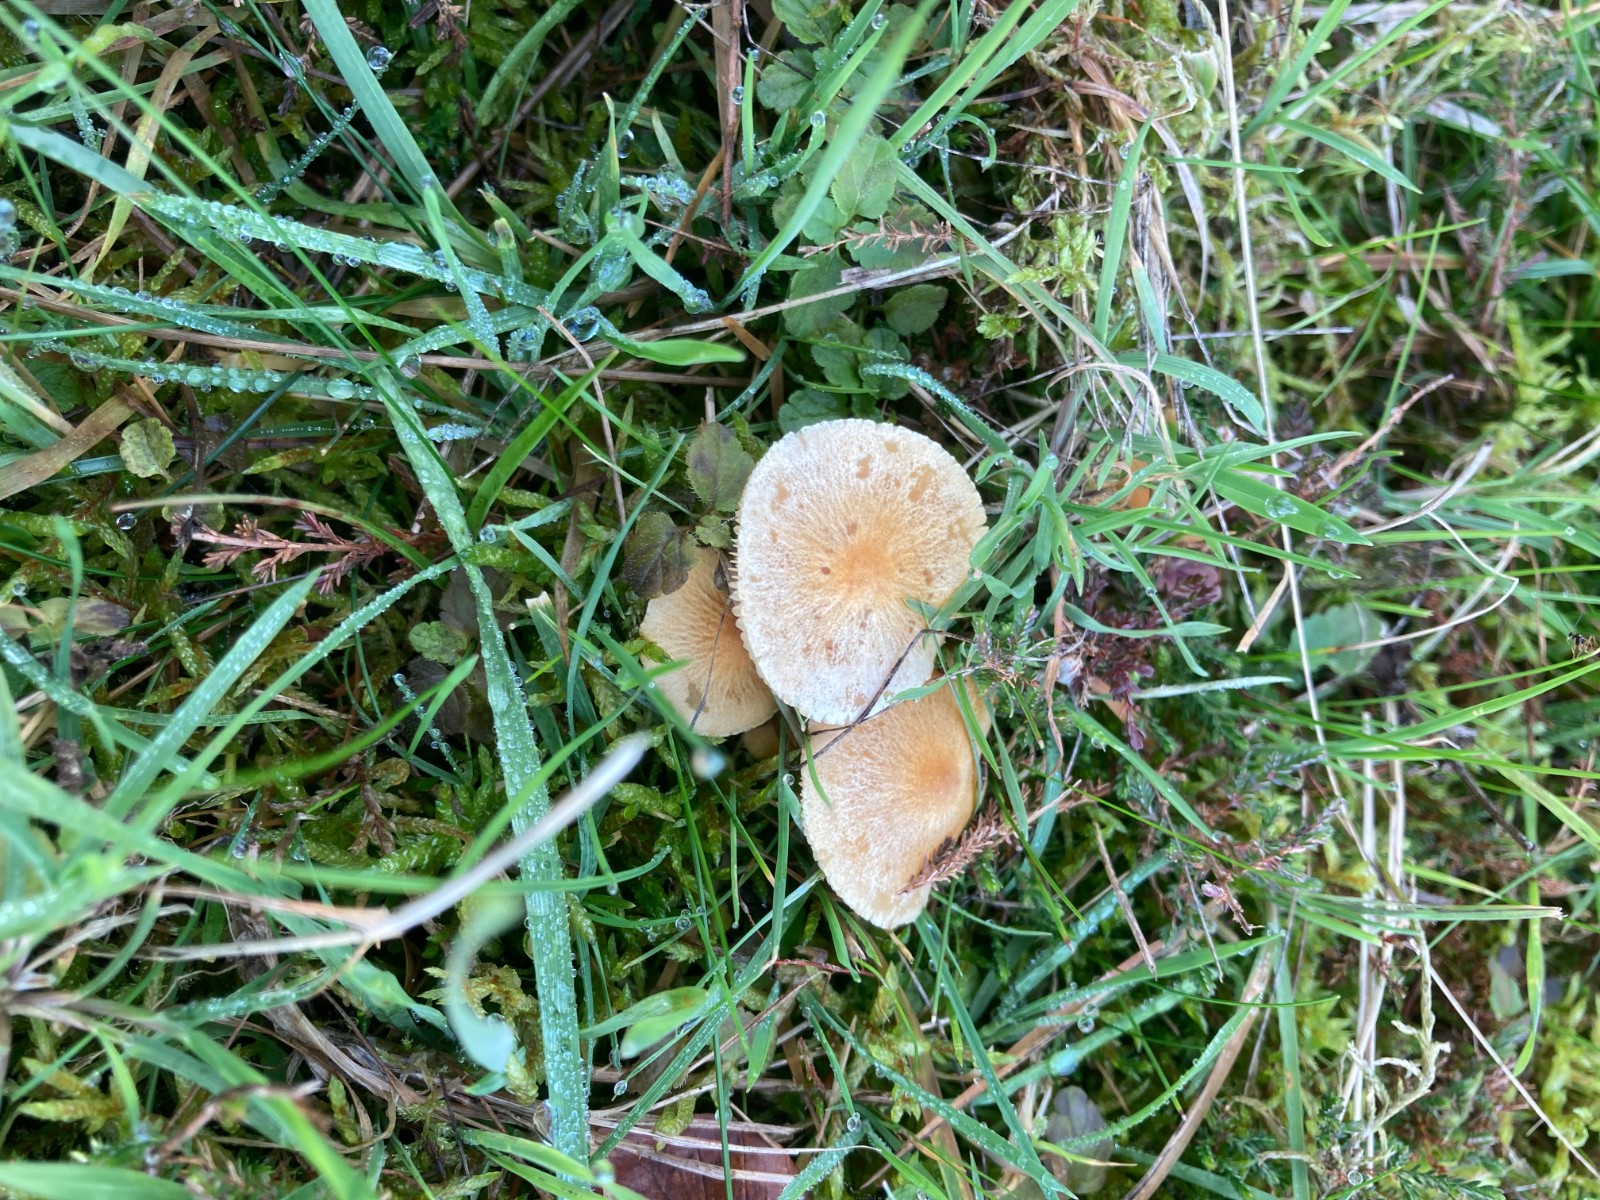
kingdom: Fungi
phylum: Basidiomycota
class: Agaricomycetes
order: Agaricales
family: Tricholomataceae
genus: Cystoderma
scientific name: Cystoderma amianthinum
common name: okkergul grynhat
